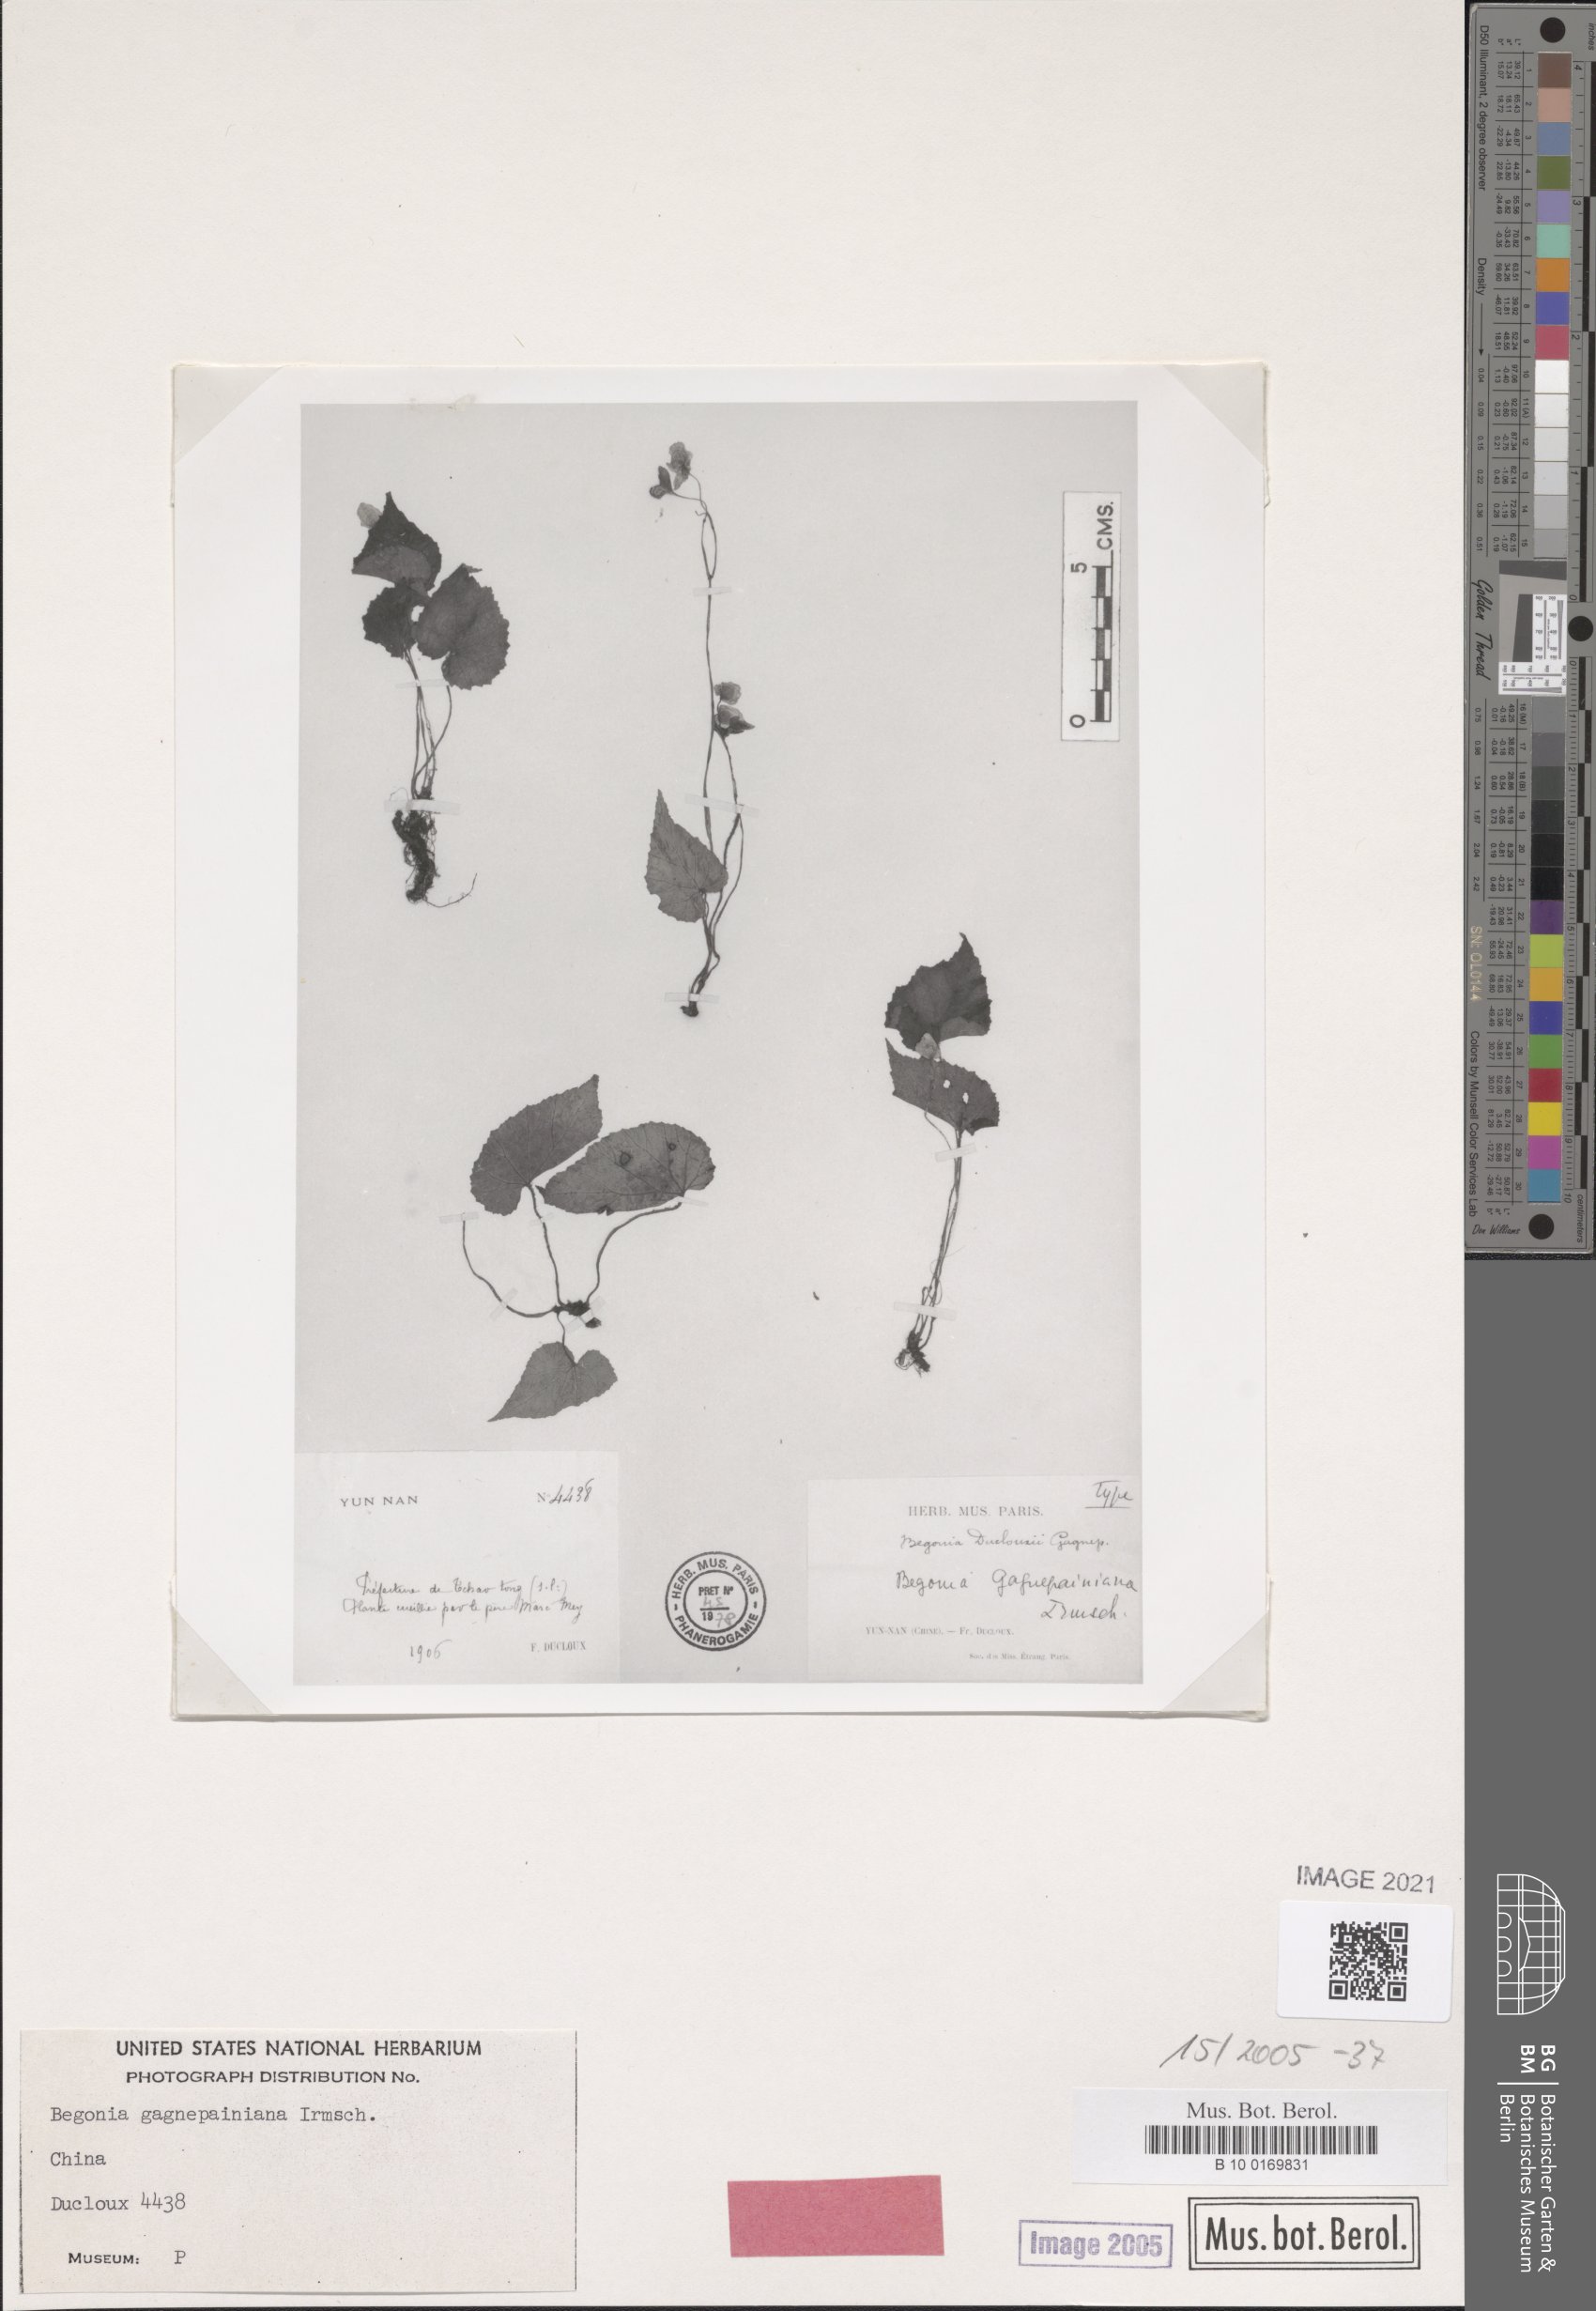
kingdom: Plantae
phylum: Tracheophyta
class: Magnoliopsida
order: Cucurbitales
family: Begoniaceae
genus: Begonia
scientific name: Begonia gagnepainiana
